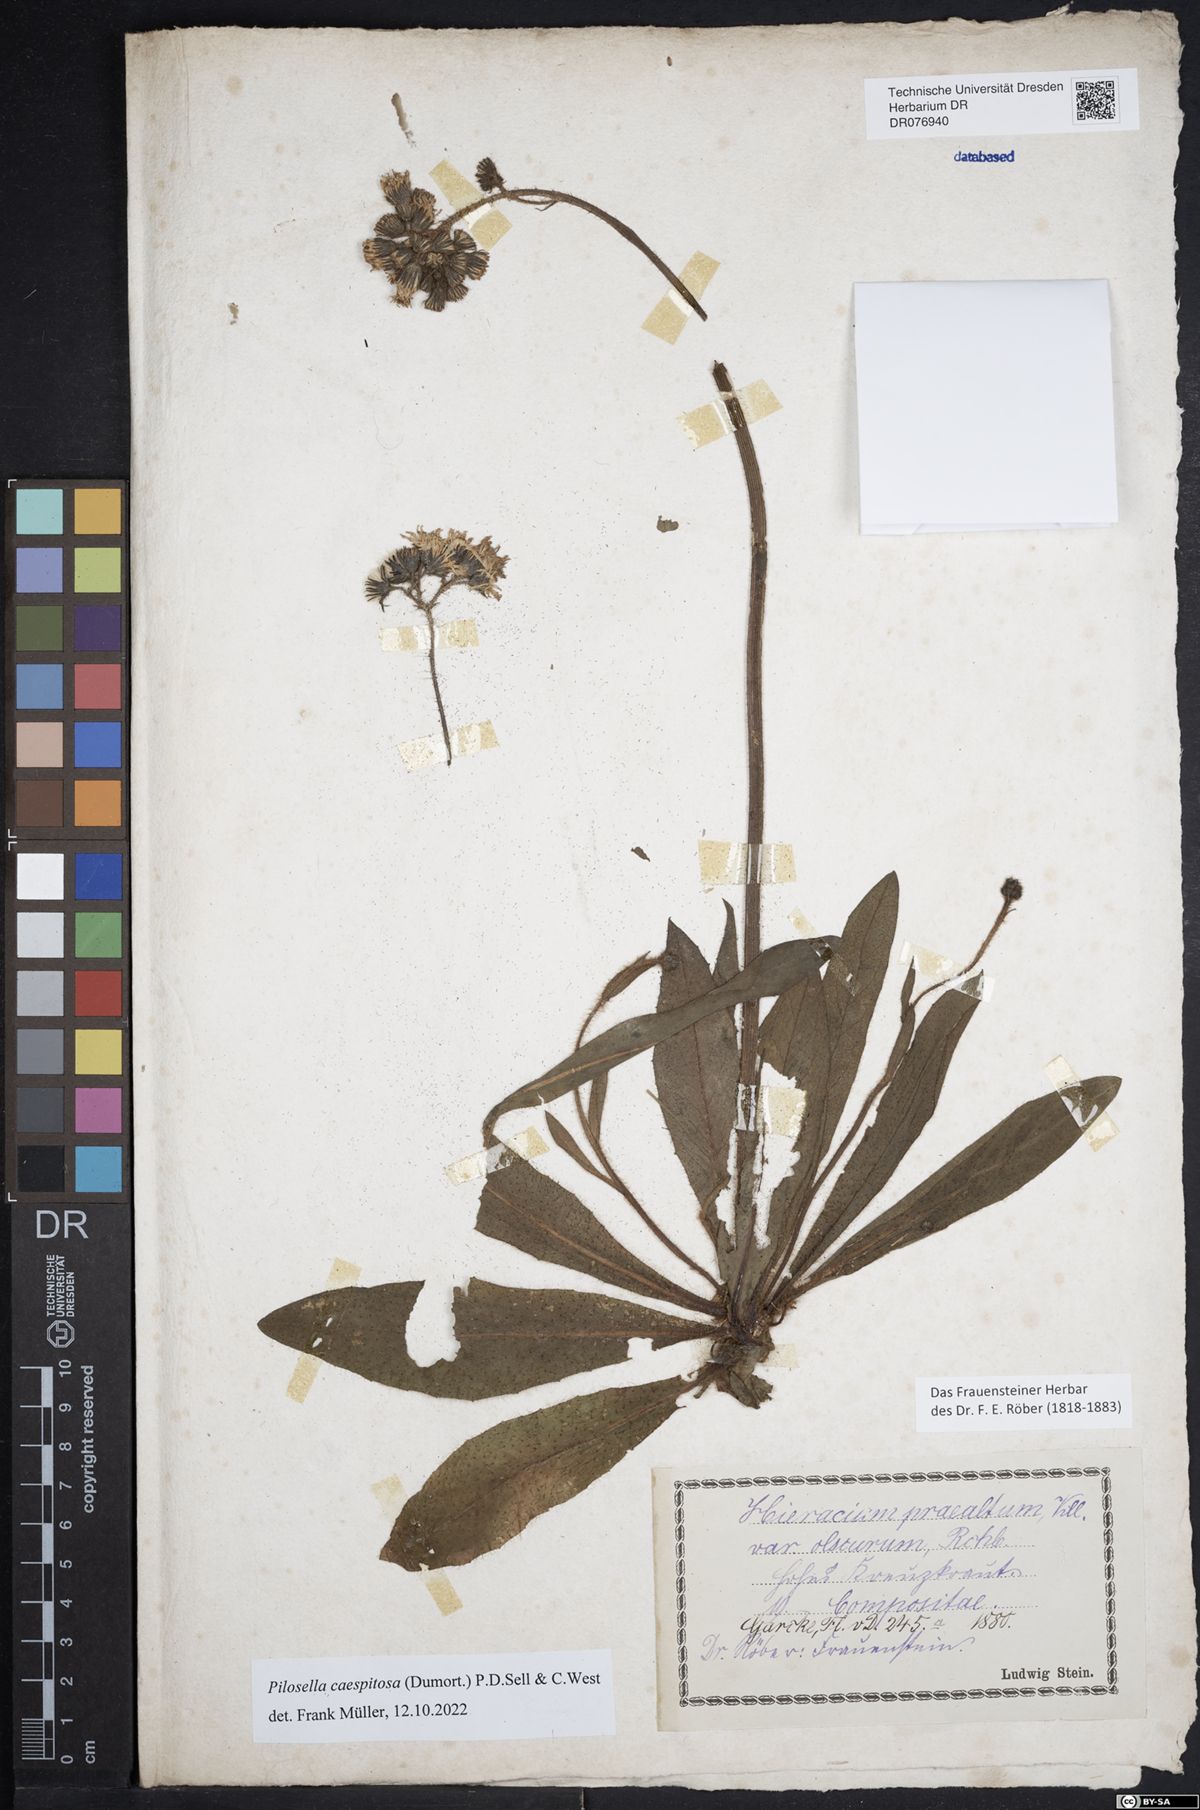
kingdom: Plantae
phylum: Tracheophyta
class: Magnoliopsida
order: Asterales
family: Asteraceae
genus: Pilosella
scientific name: Pilosella caespitosa
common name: Yellow fox-and-cubs
